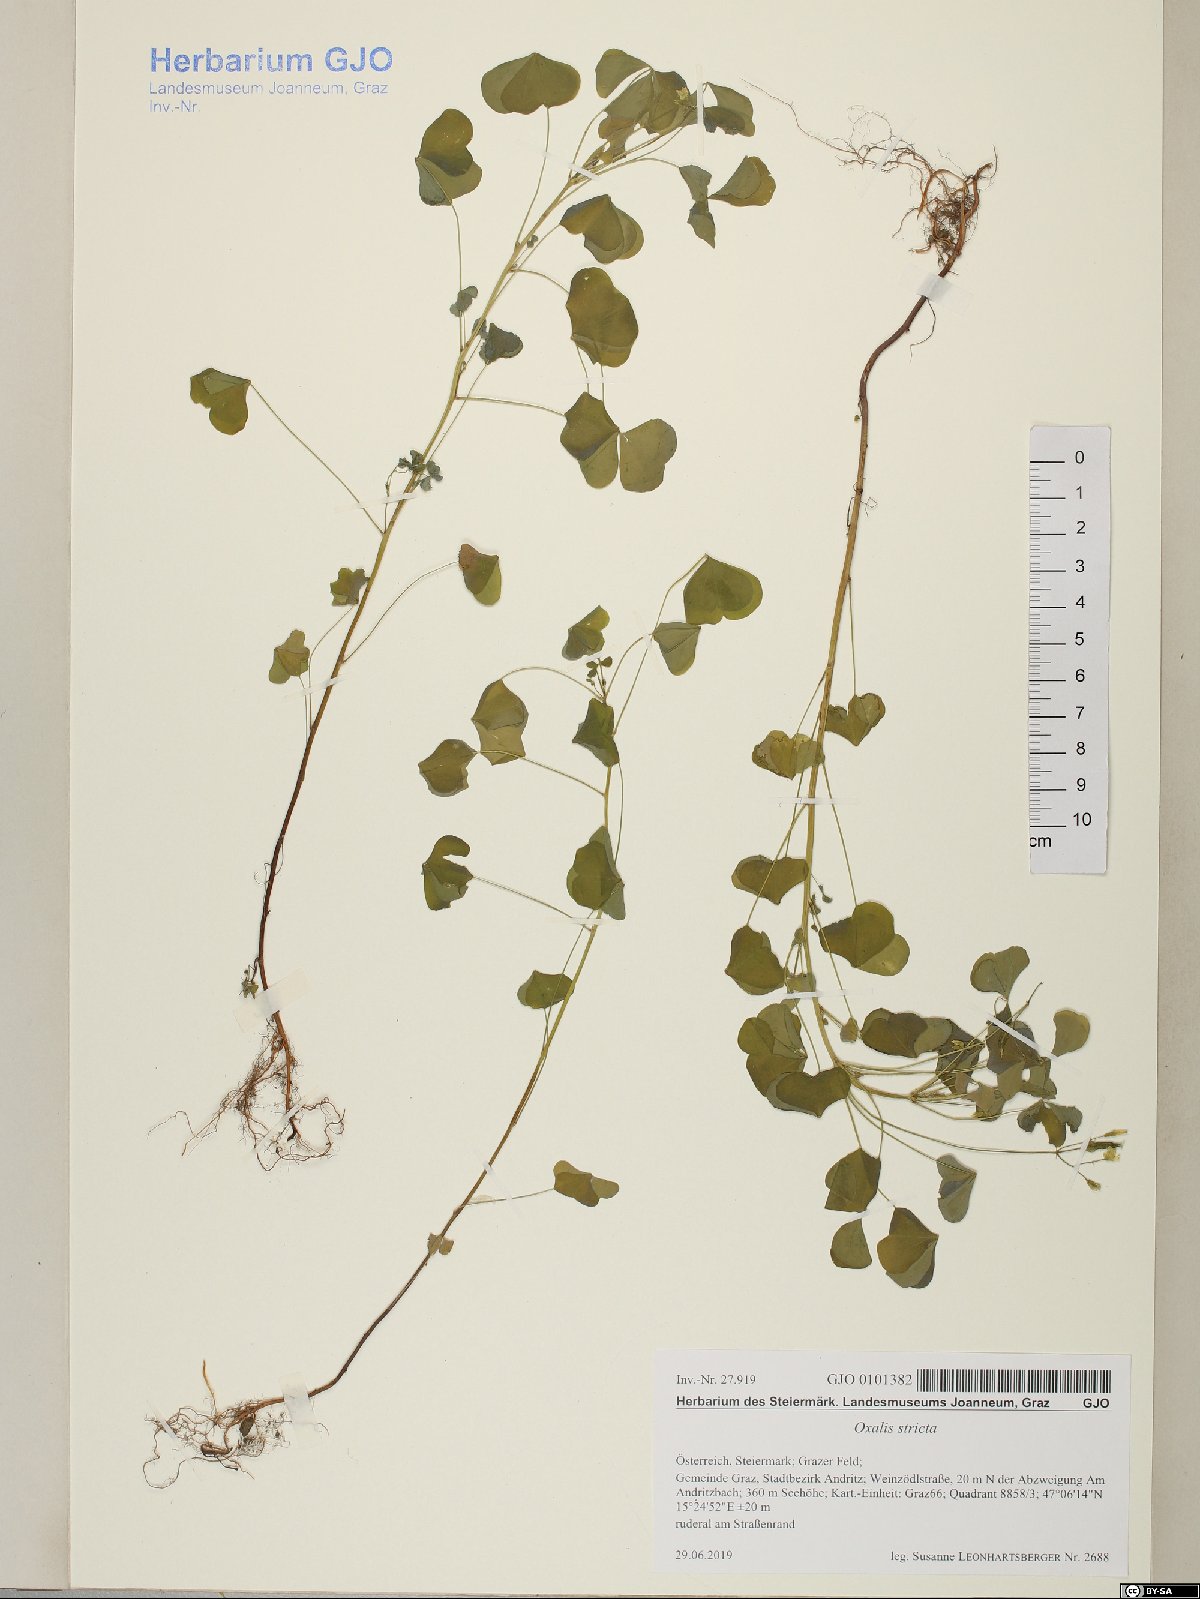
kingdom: Plantae
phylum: Tracheophyta
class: Magnoliopsida
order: Oxalidales
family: Oxalidaceae
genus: Oxalis
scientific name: Oxalis stricta
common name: Upright yellow-sorrel
